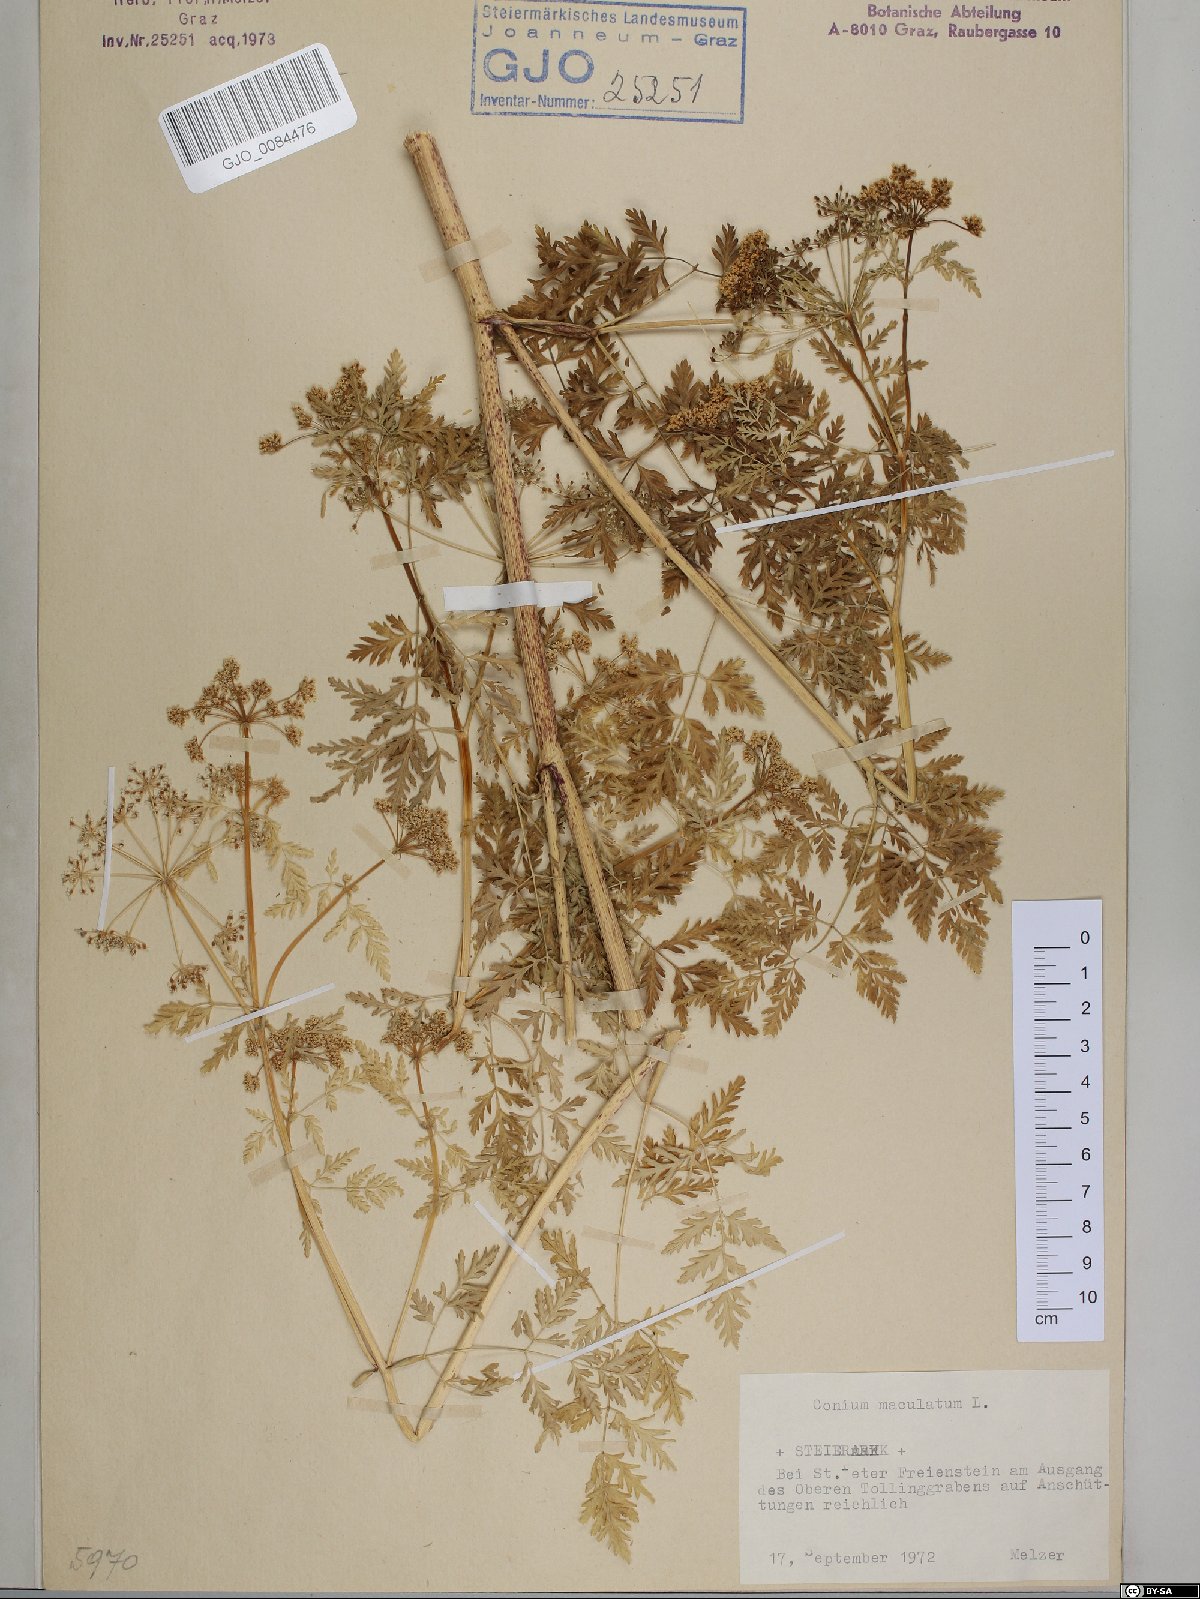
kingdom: Plantae
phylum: Tracheophyta
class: Magnoliopsida
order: Apiales
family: Apiaceae
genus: Conium
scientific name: Conium maculatum
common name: Hemlock
